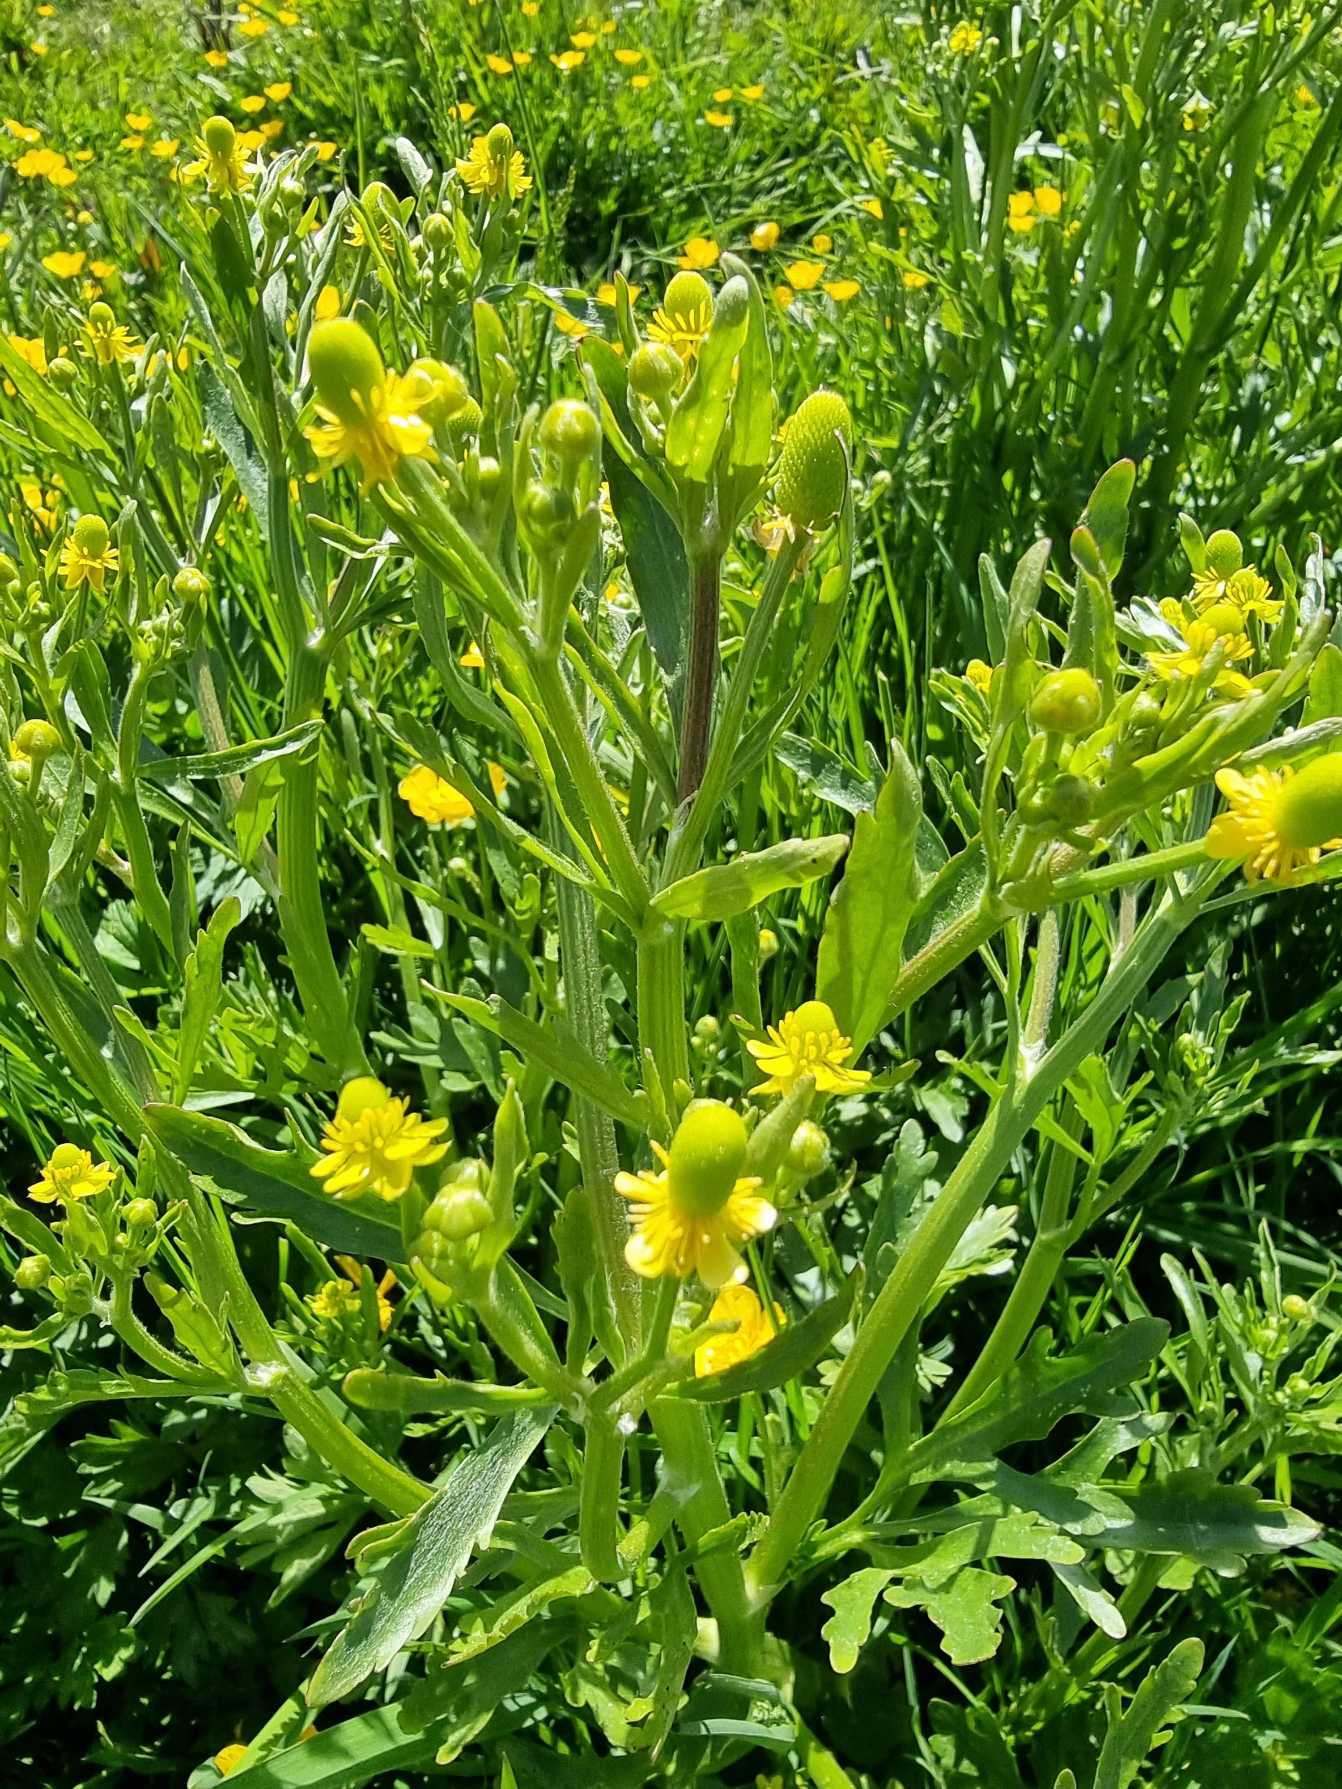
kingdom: Plantae
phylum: Tracheophyta
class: Magnoliopsida
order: Ranunculales
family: Ranunculaceae
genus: Ranunculus
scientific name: Ranunculus sceleratus
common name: Tigger-ranunkel
